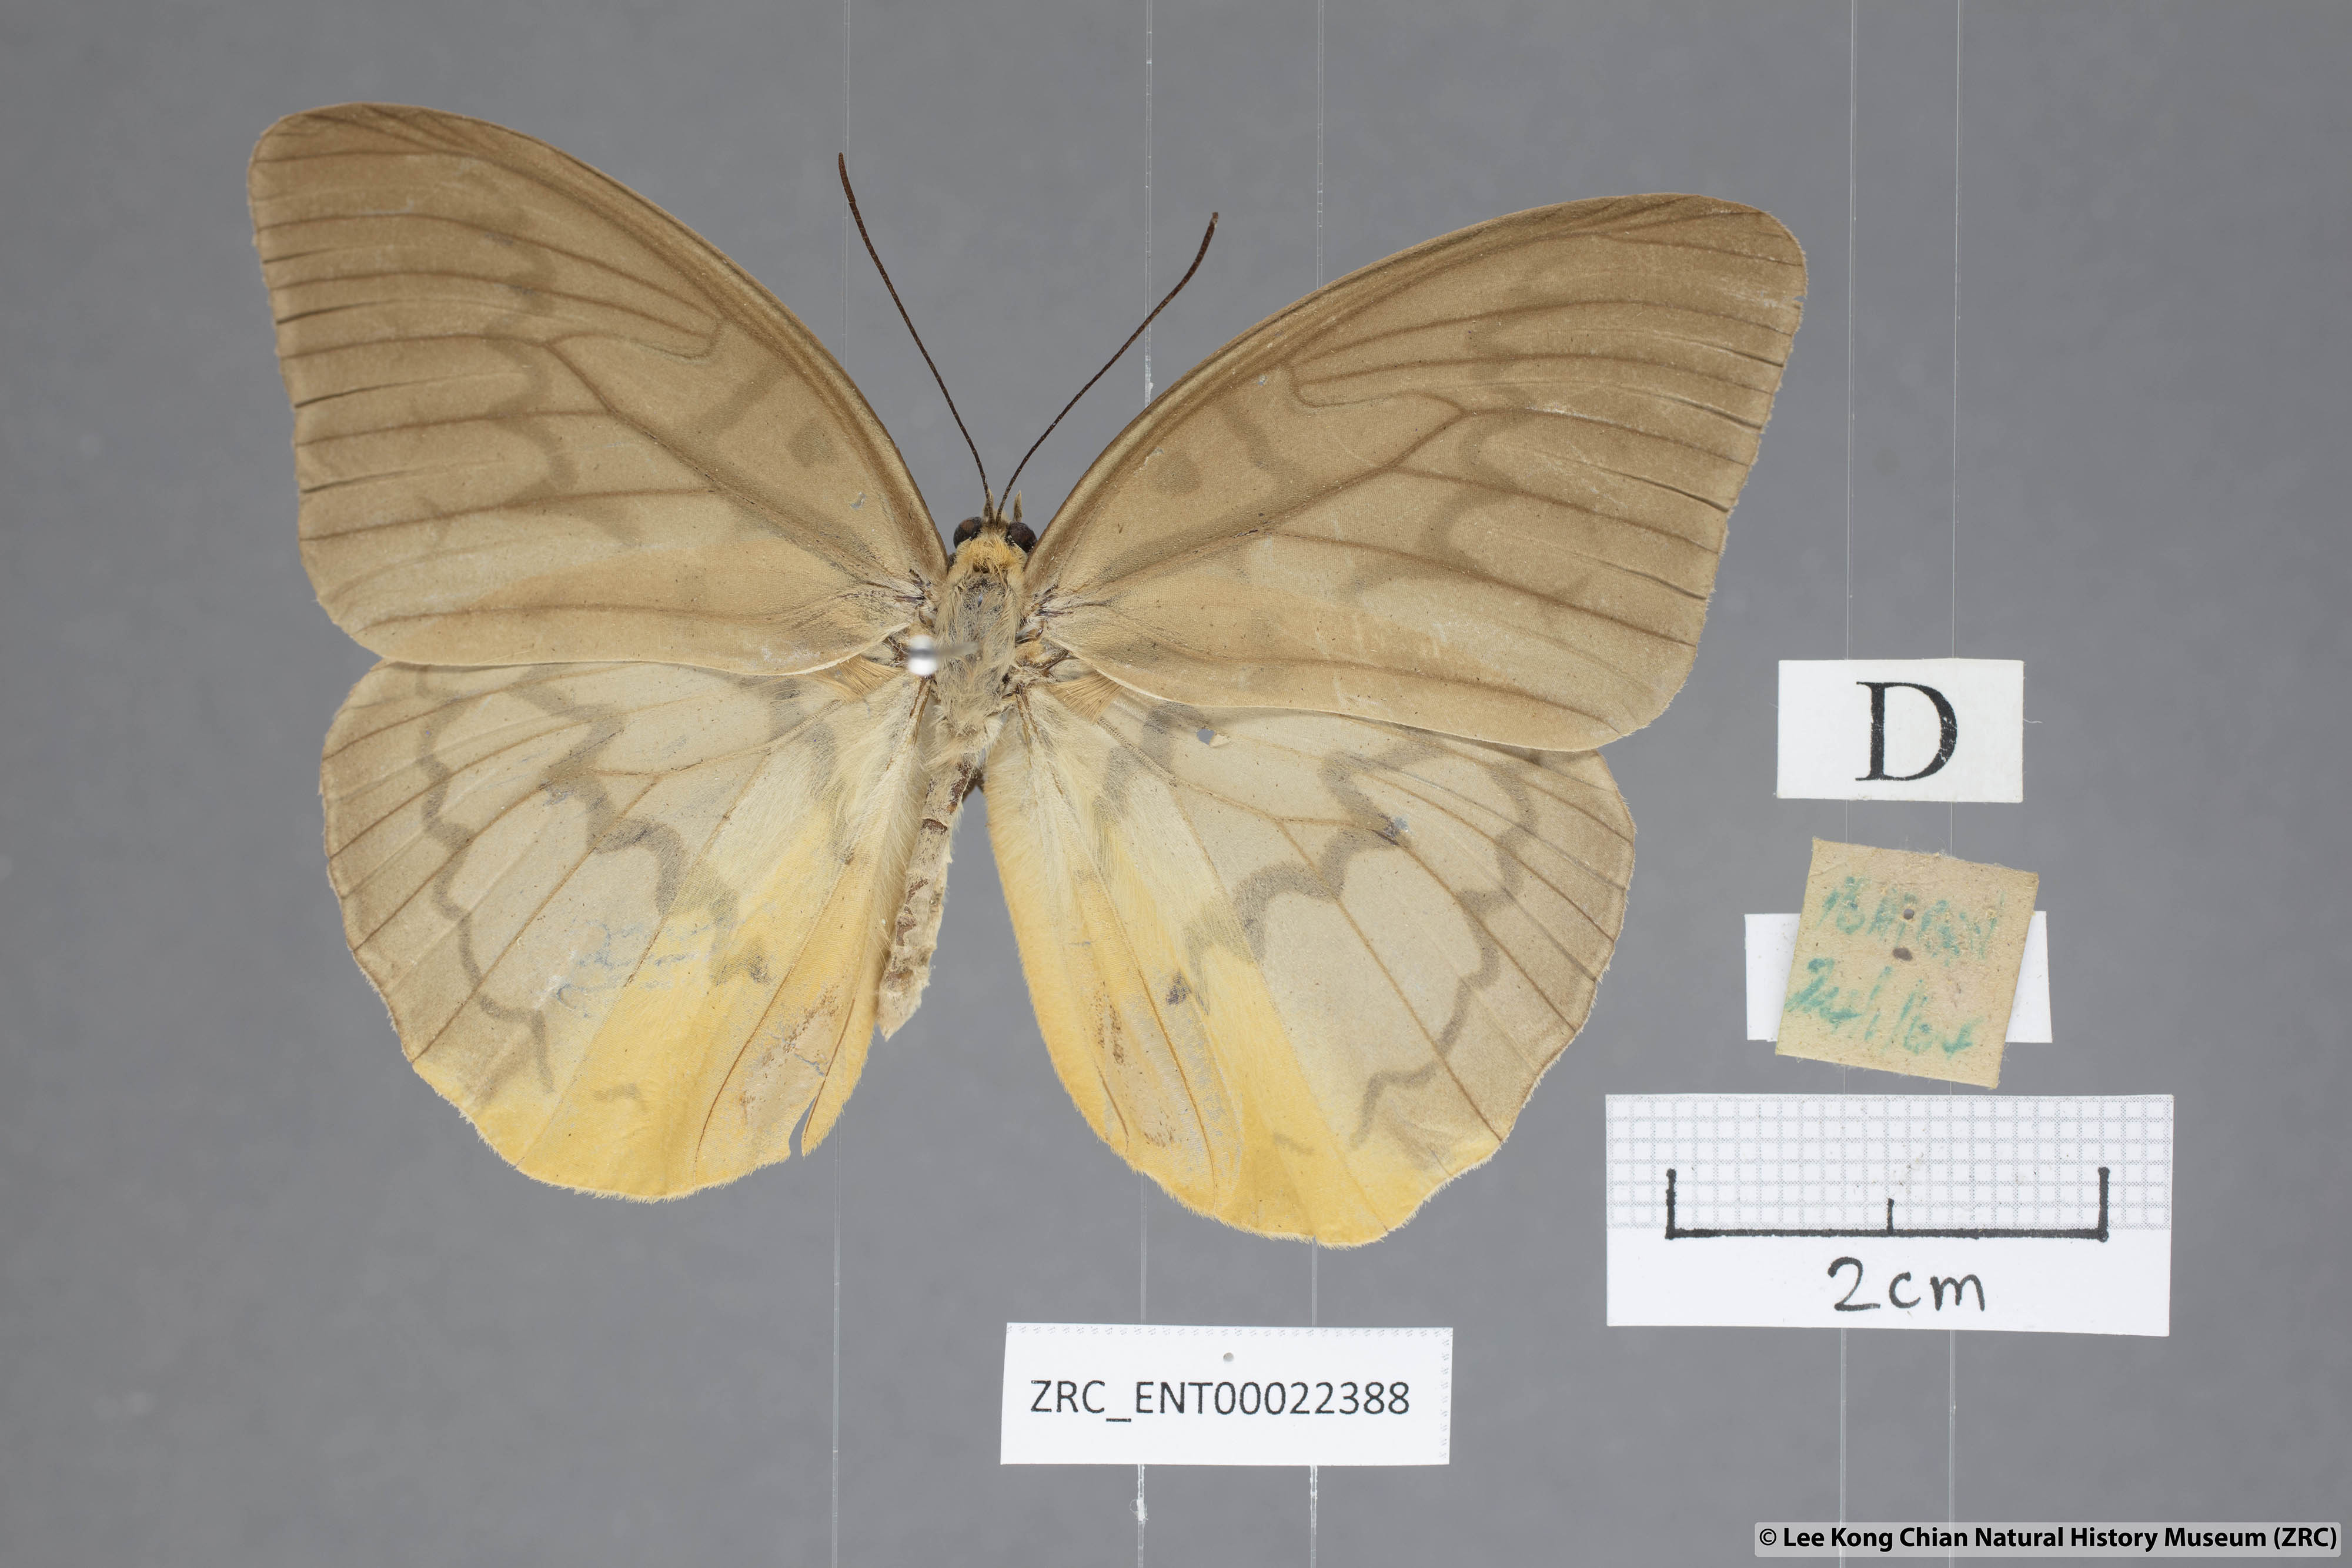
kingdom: Animalia
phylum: Arthropoda
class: Insecta
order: Lepidoptera
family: Nymphalidae
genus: Faunis
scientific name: Faunis Melanocyma faunula
